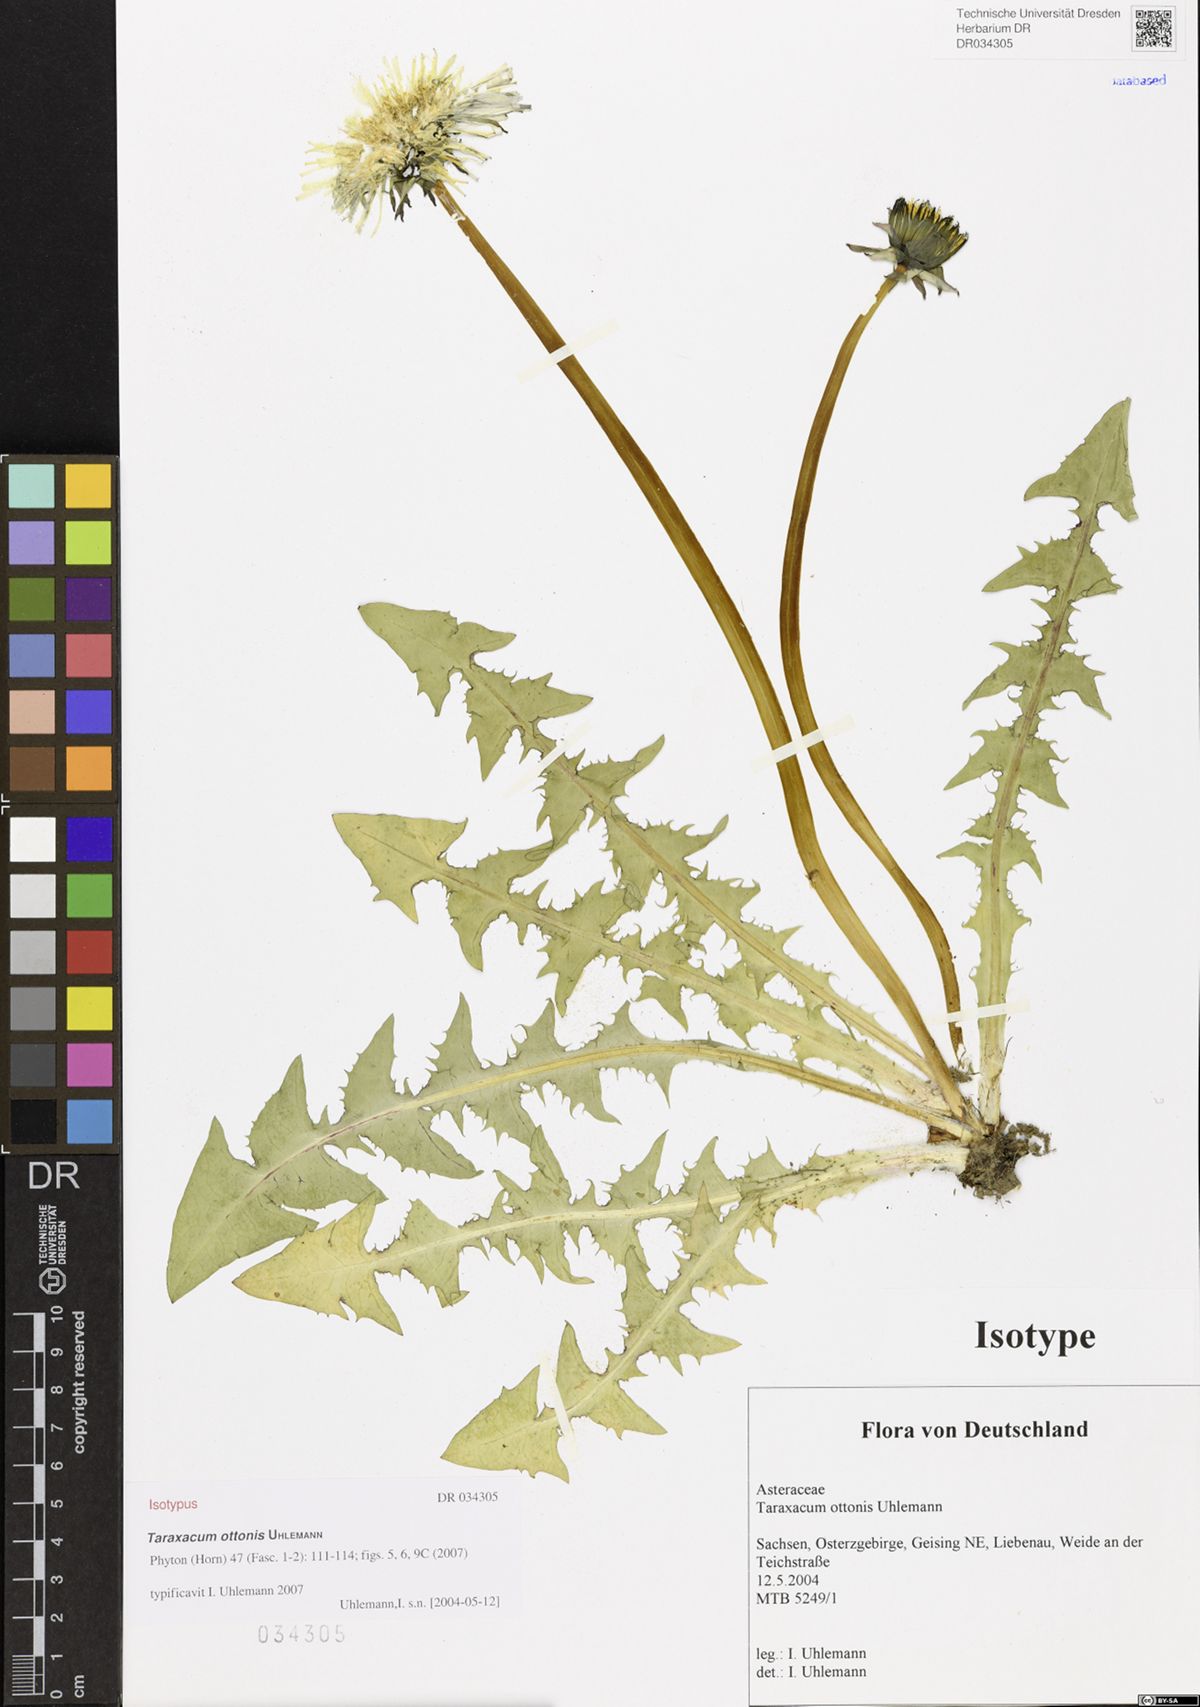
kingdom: Plantae
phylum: Tracheophyta
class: Magnoliopsida
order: Asterales
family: Asteraceae
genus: Taraxacum
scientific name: Taraxacum ottonis
